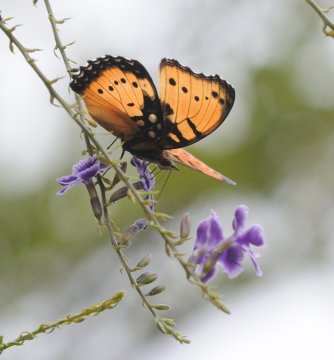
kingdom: Animalia
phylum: Arthropoda
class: Insecta
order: Lepidoptera
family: Nymphalidae
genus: Precis
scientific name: Precis octavia
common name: Gaudy Commodore
